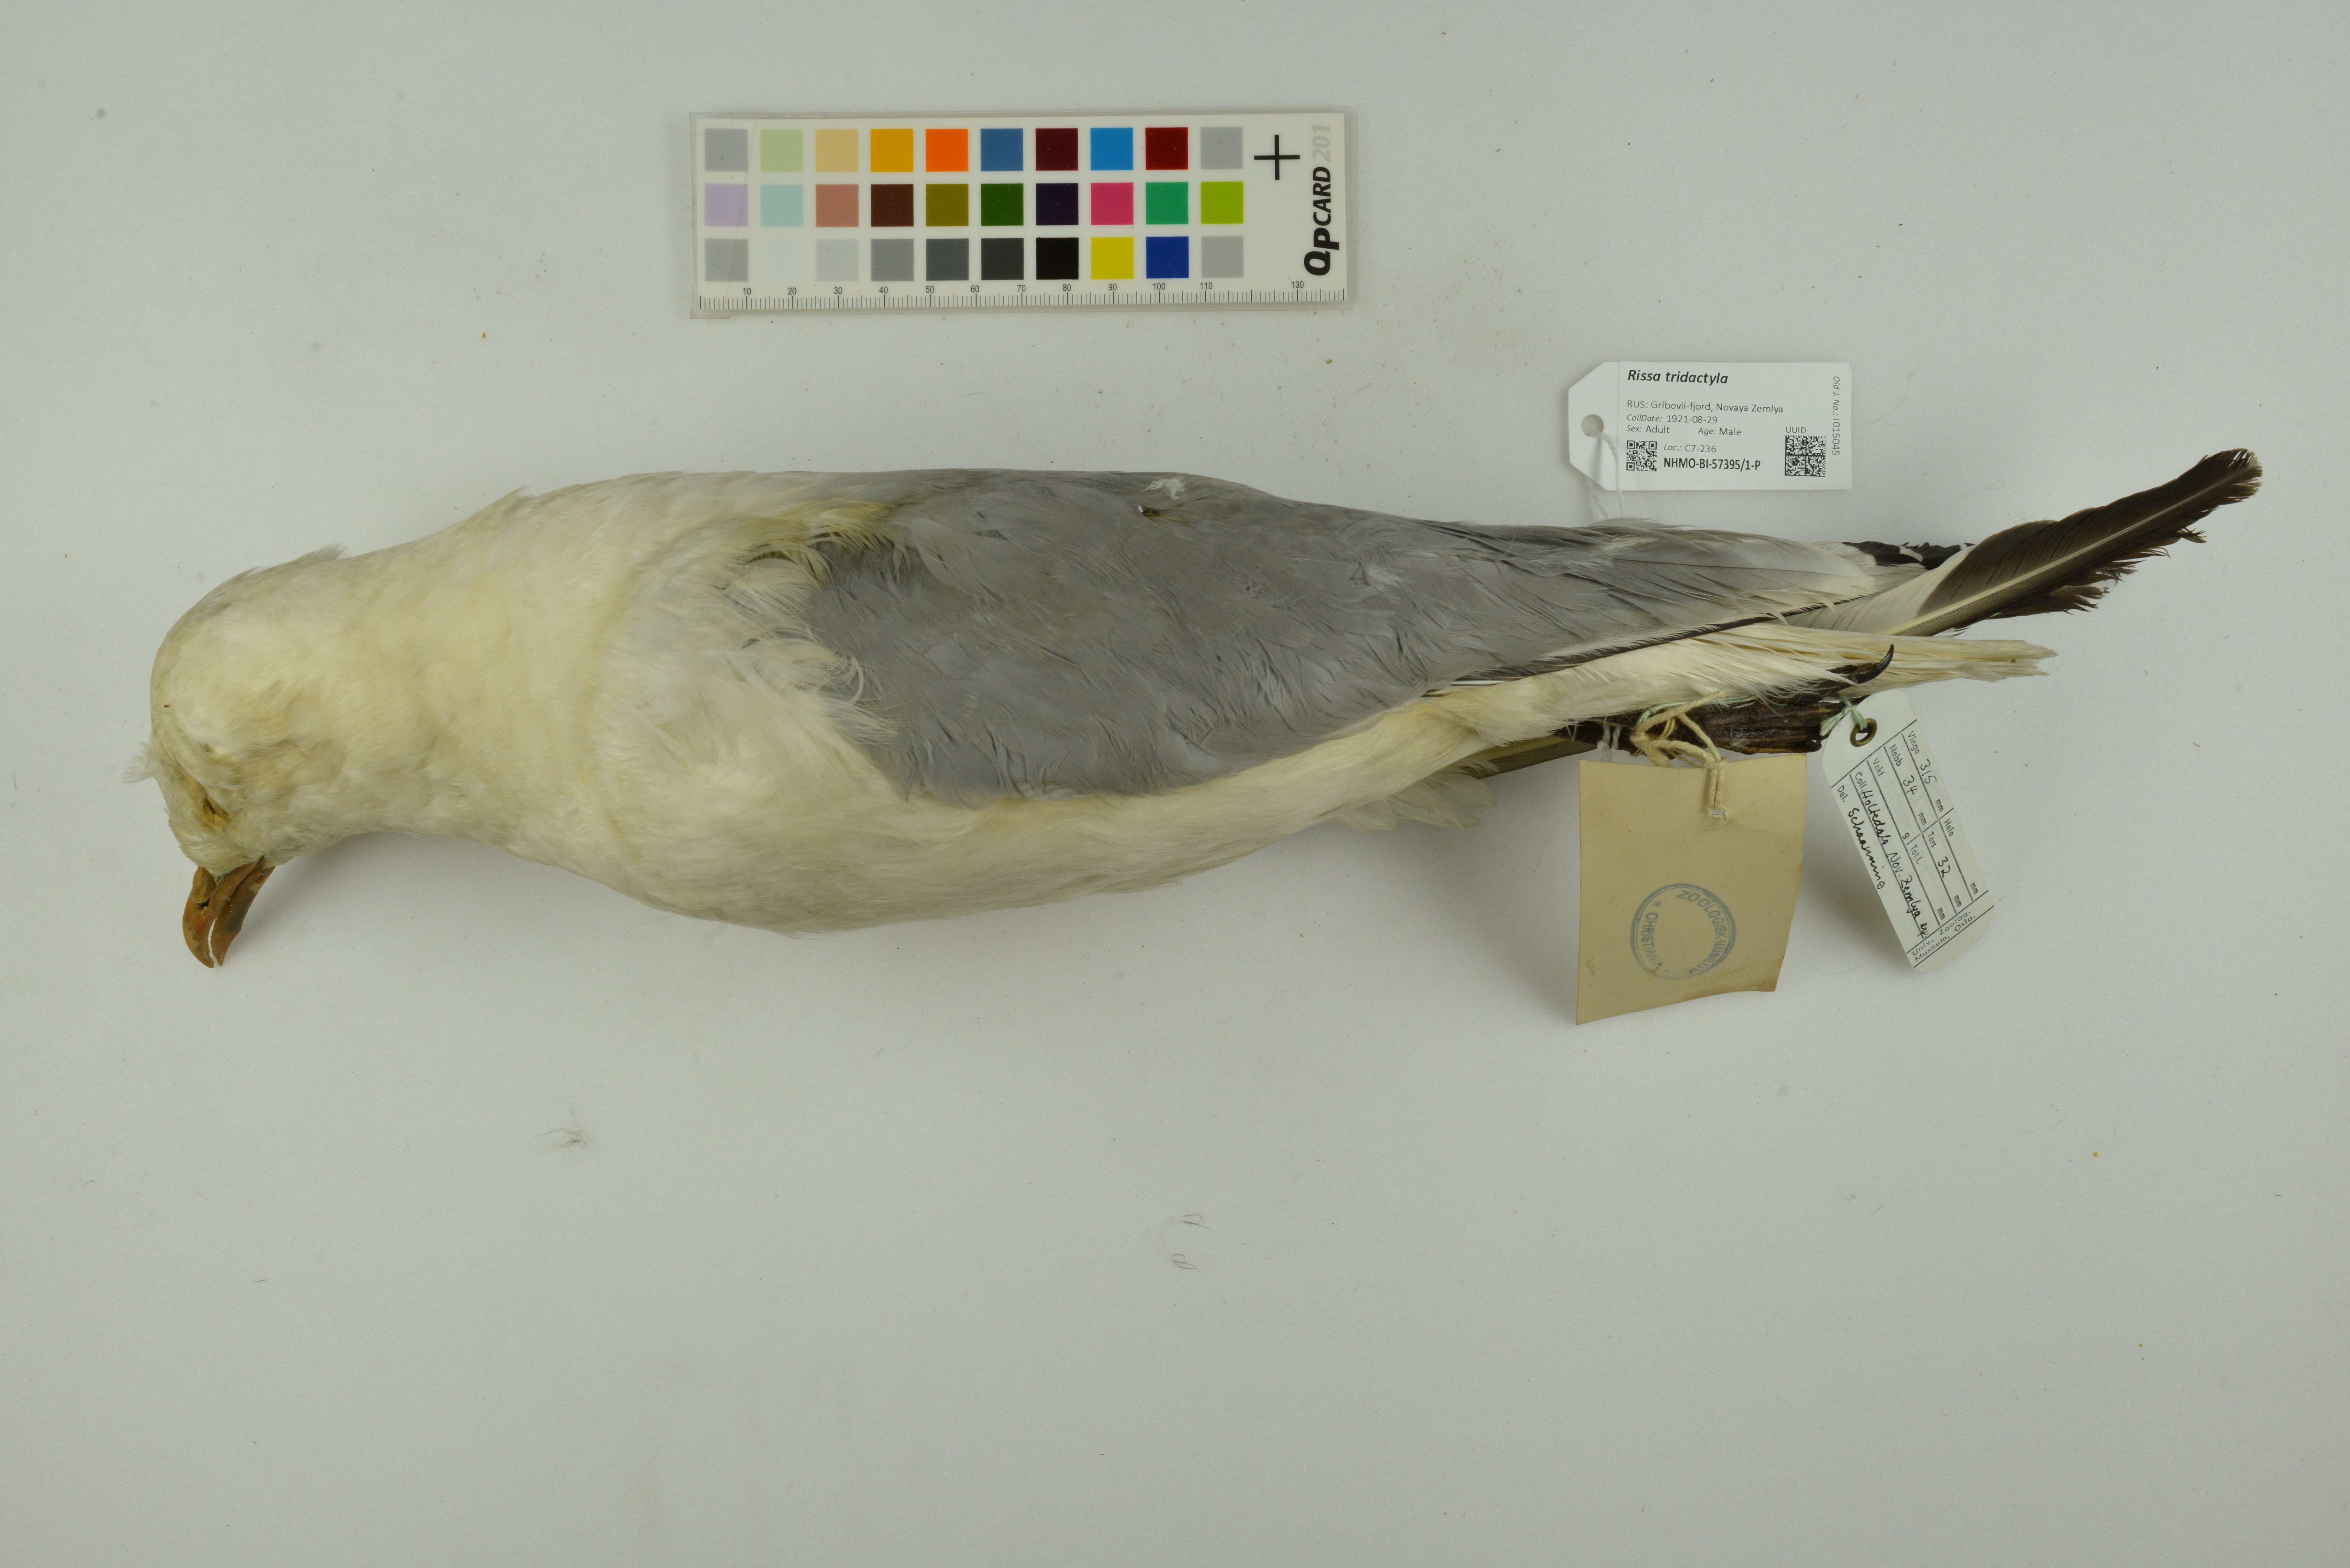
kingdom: Animalia
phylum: Chordata
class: Aves
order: Charadriiformes
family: Laridae
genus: Rissa
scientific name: Rissa tridactyla
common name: Black-legged kittiwake
